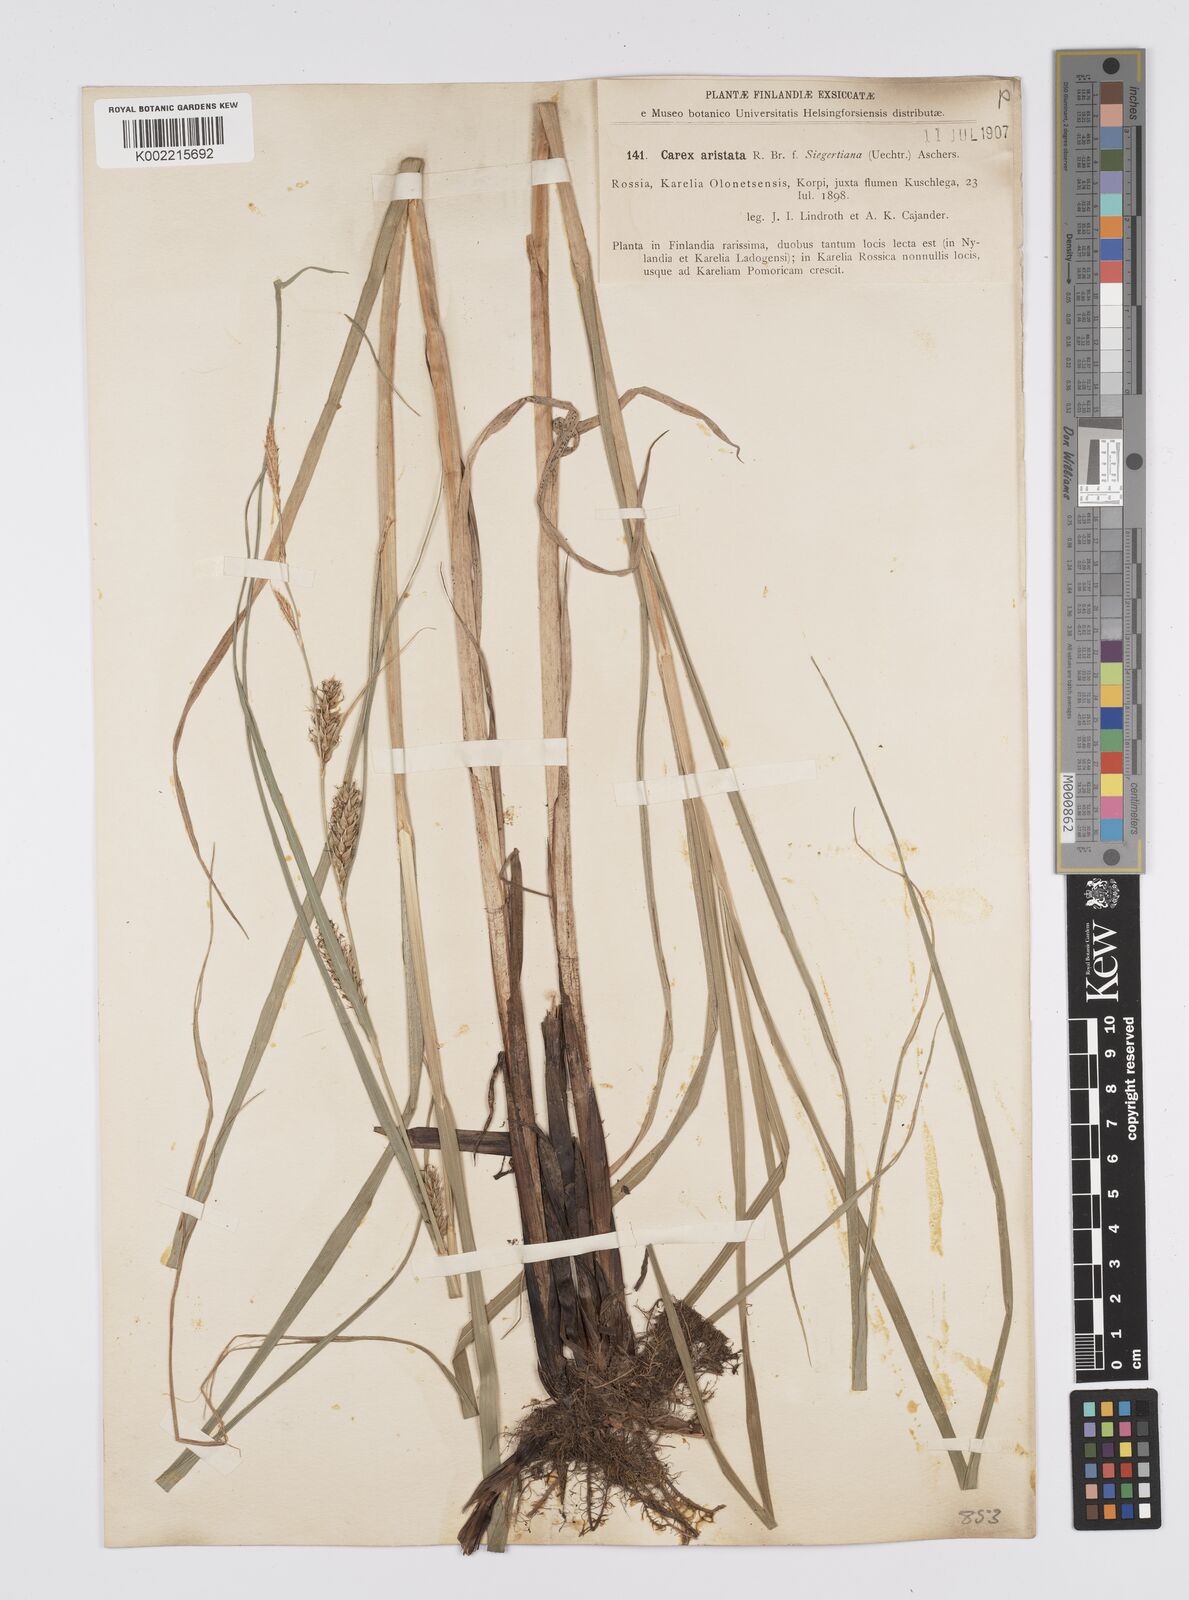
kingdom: Plantae
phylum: Tracheophyta
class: Liliopsida
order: Poales
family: Cyperaceae
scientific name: Cyperaceae
